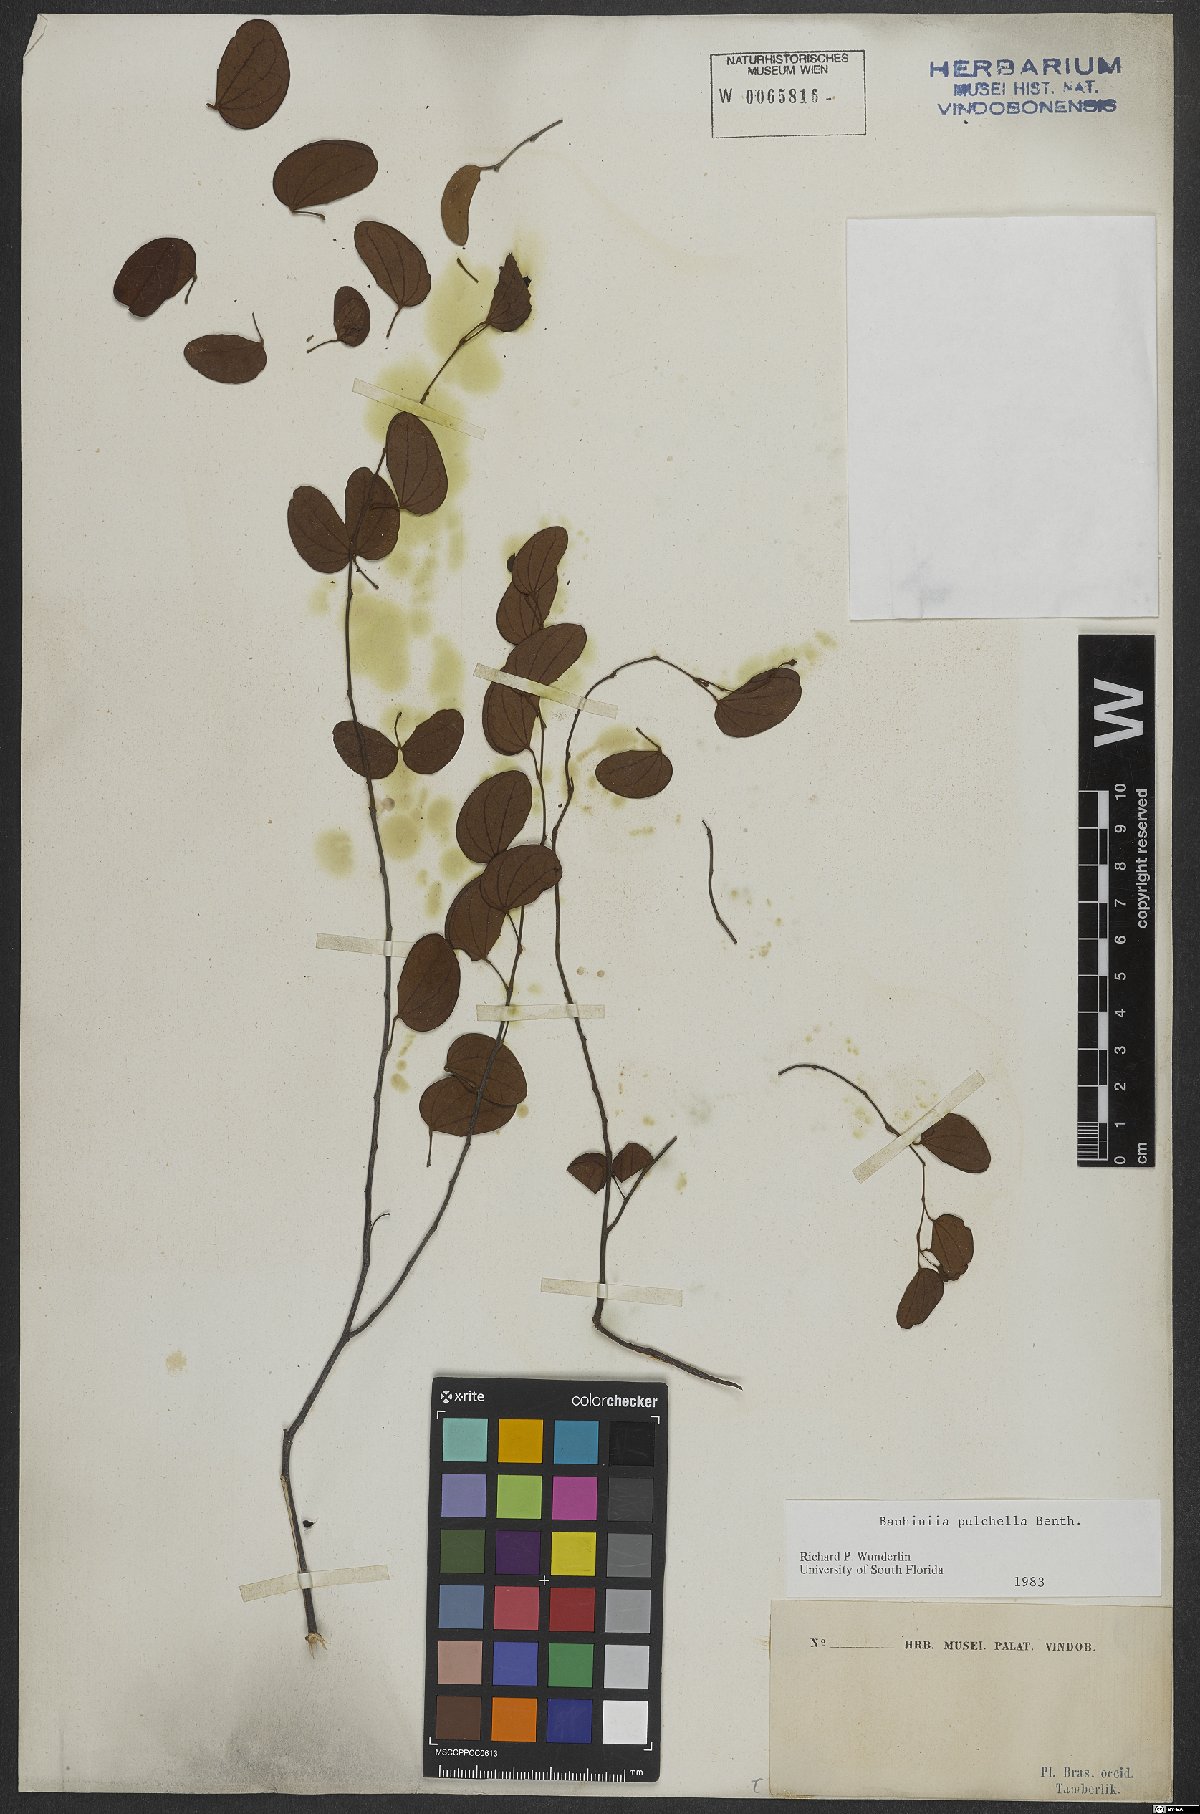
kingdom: Plantae
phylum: Tracheophyta
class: Magnoliopsida
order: Fabales
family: Fabaceae
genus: Bauhinia
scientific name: Bauhinia pulchella
